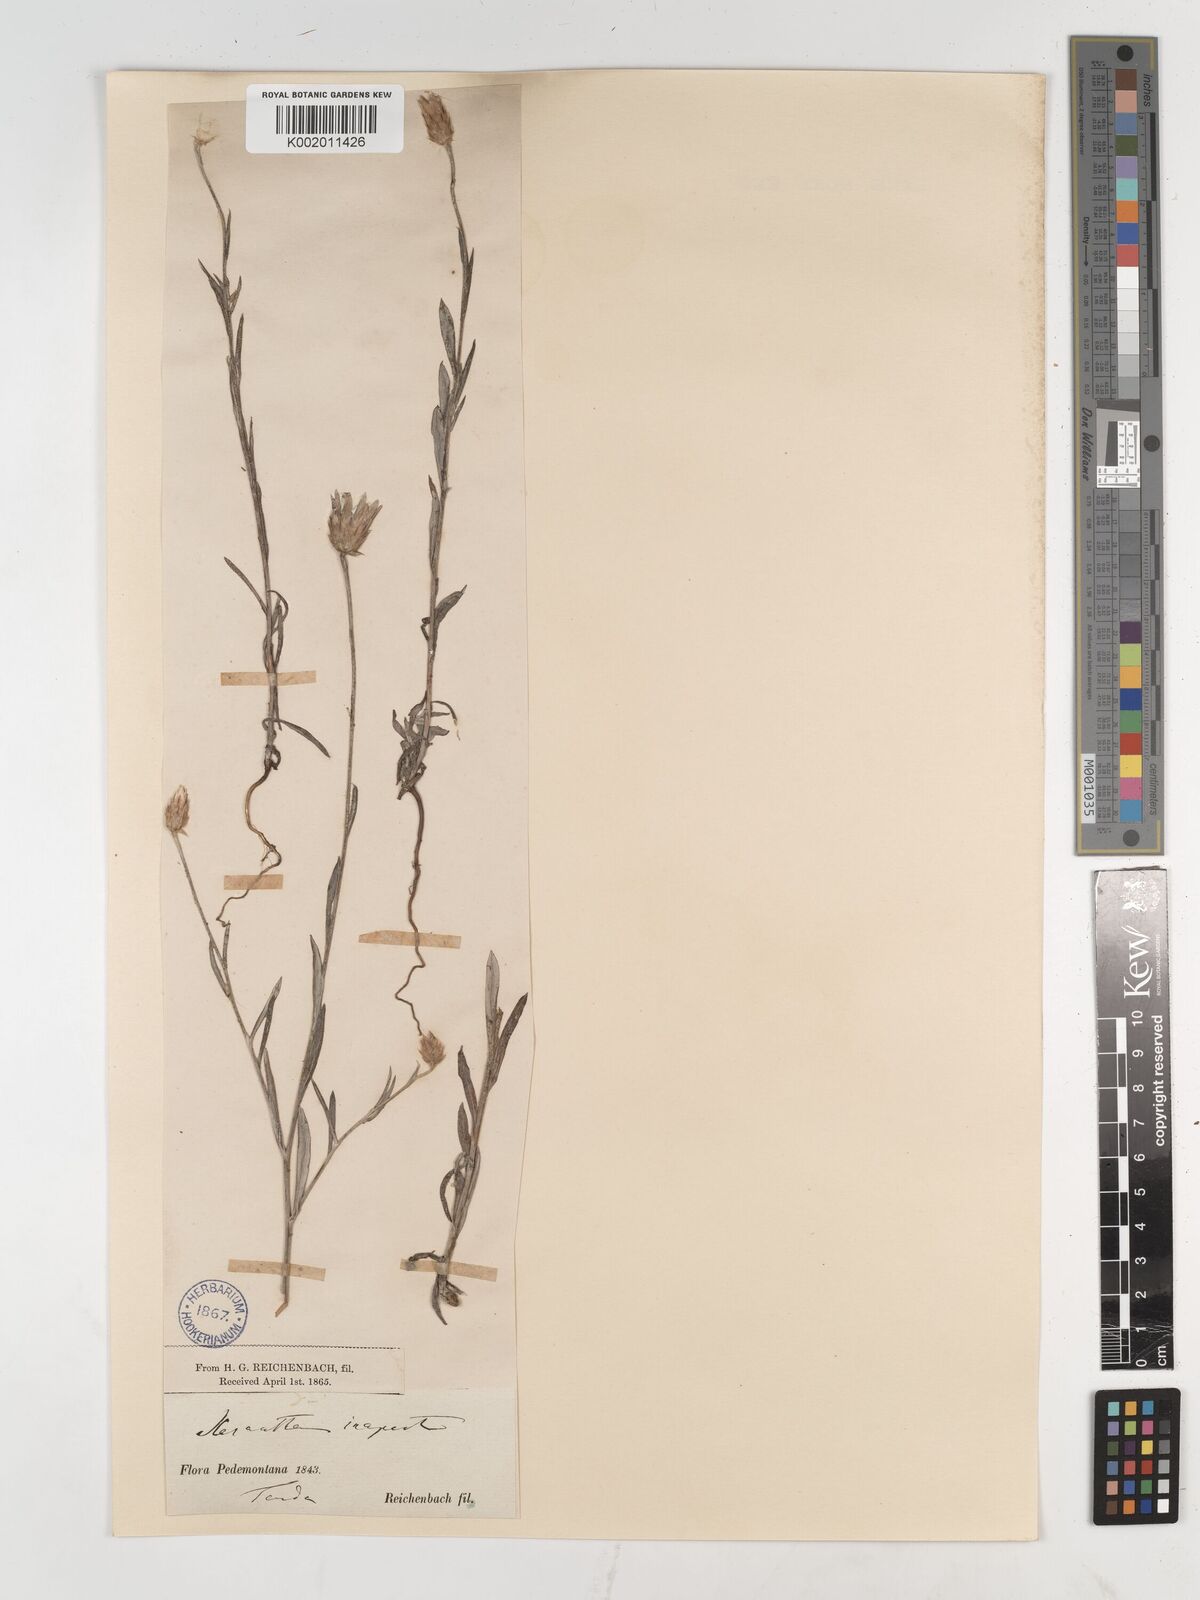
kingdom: Plantae
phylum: Tracheophyta
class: Magnoliopsida
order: Asterales
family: Asteraceae
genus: Xeranthemum
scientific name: Xeranthemum inapertum
